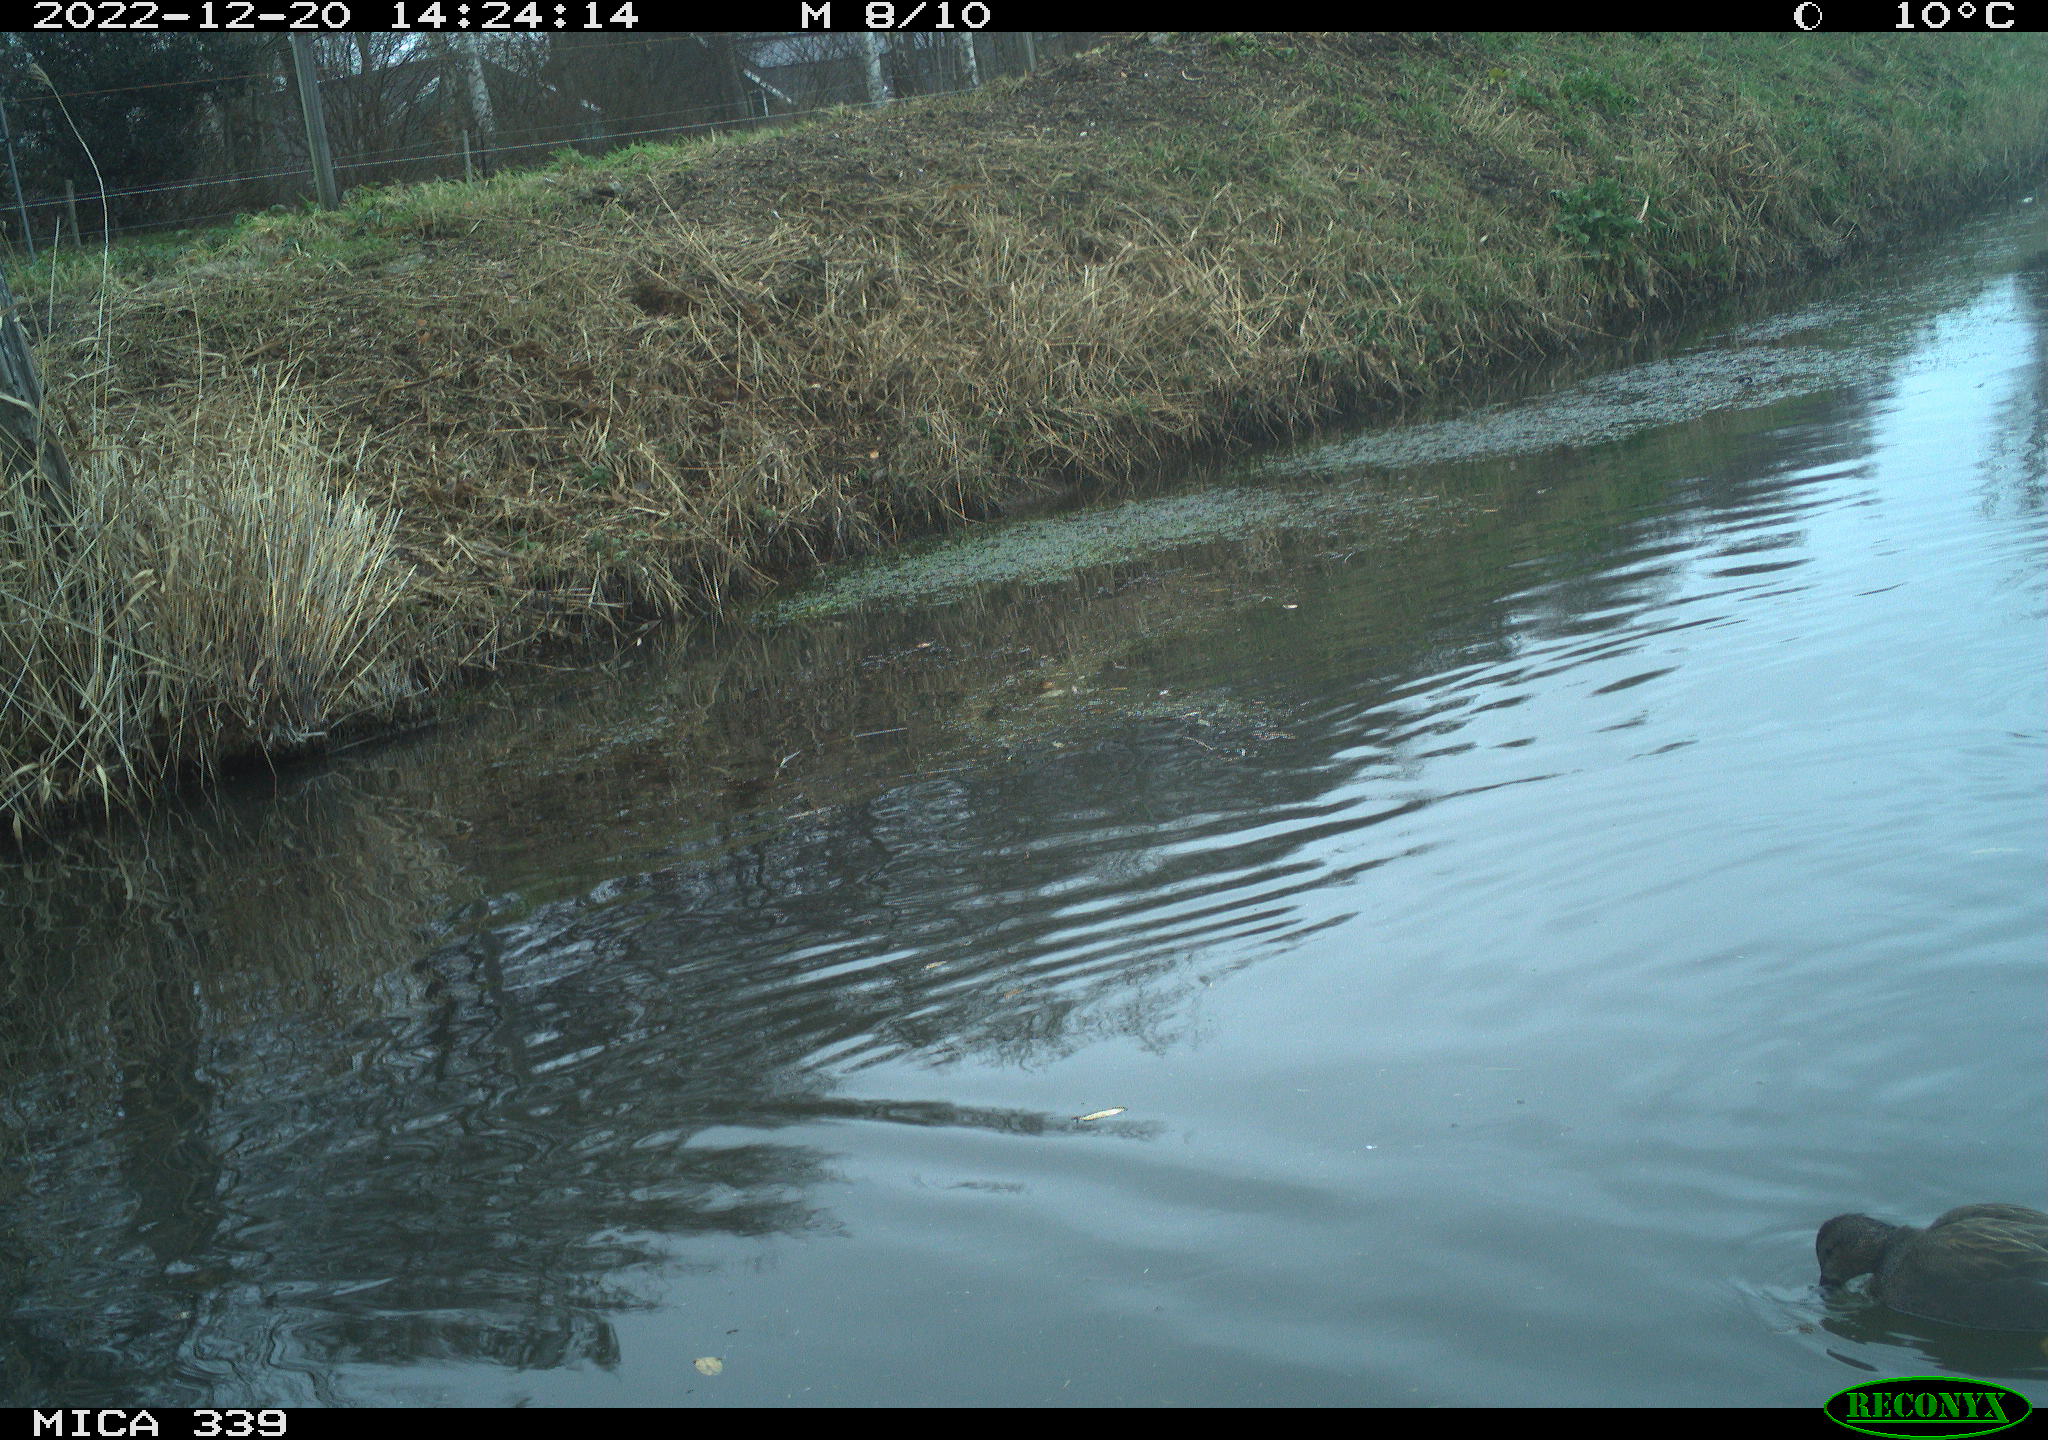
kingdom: Animalia
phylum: Chordata
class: Aves
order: Anseriformes
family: Anatidae
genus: Anas
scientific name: Anas
